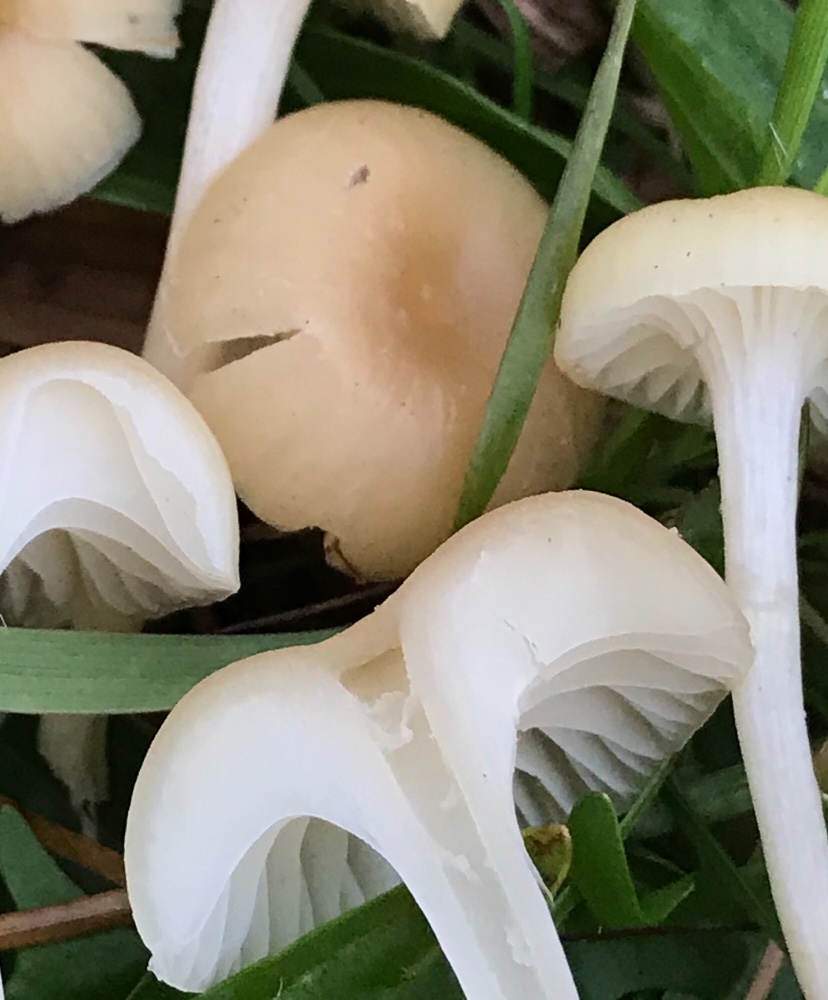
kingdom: Fungi
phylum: Basidiomycota
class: Agaricomycetes
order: Agaricales
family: Hygrophoraceae
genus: Cuphophyllus
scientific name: Cuphophyllus
